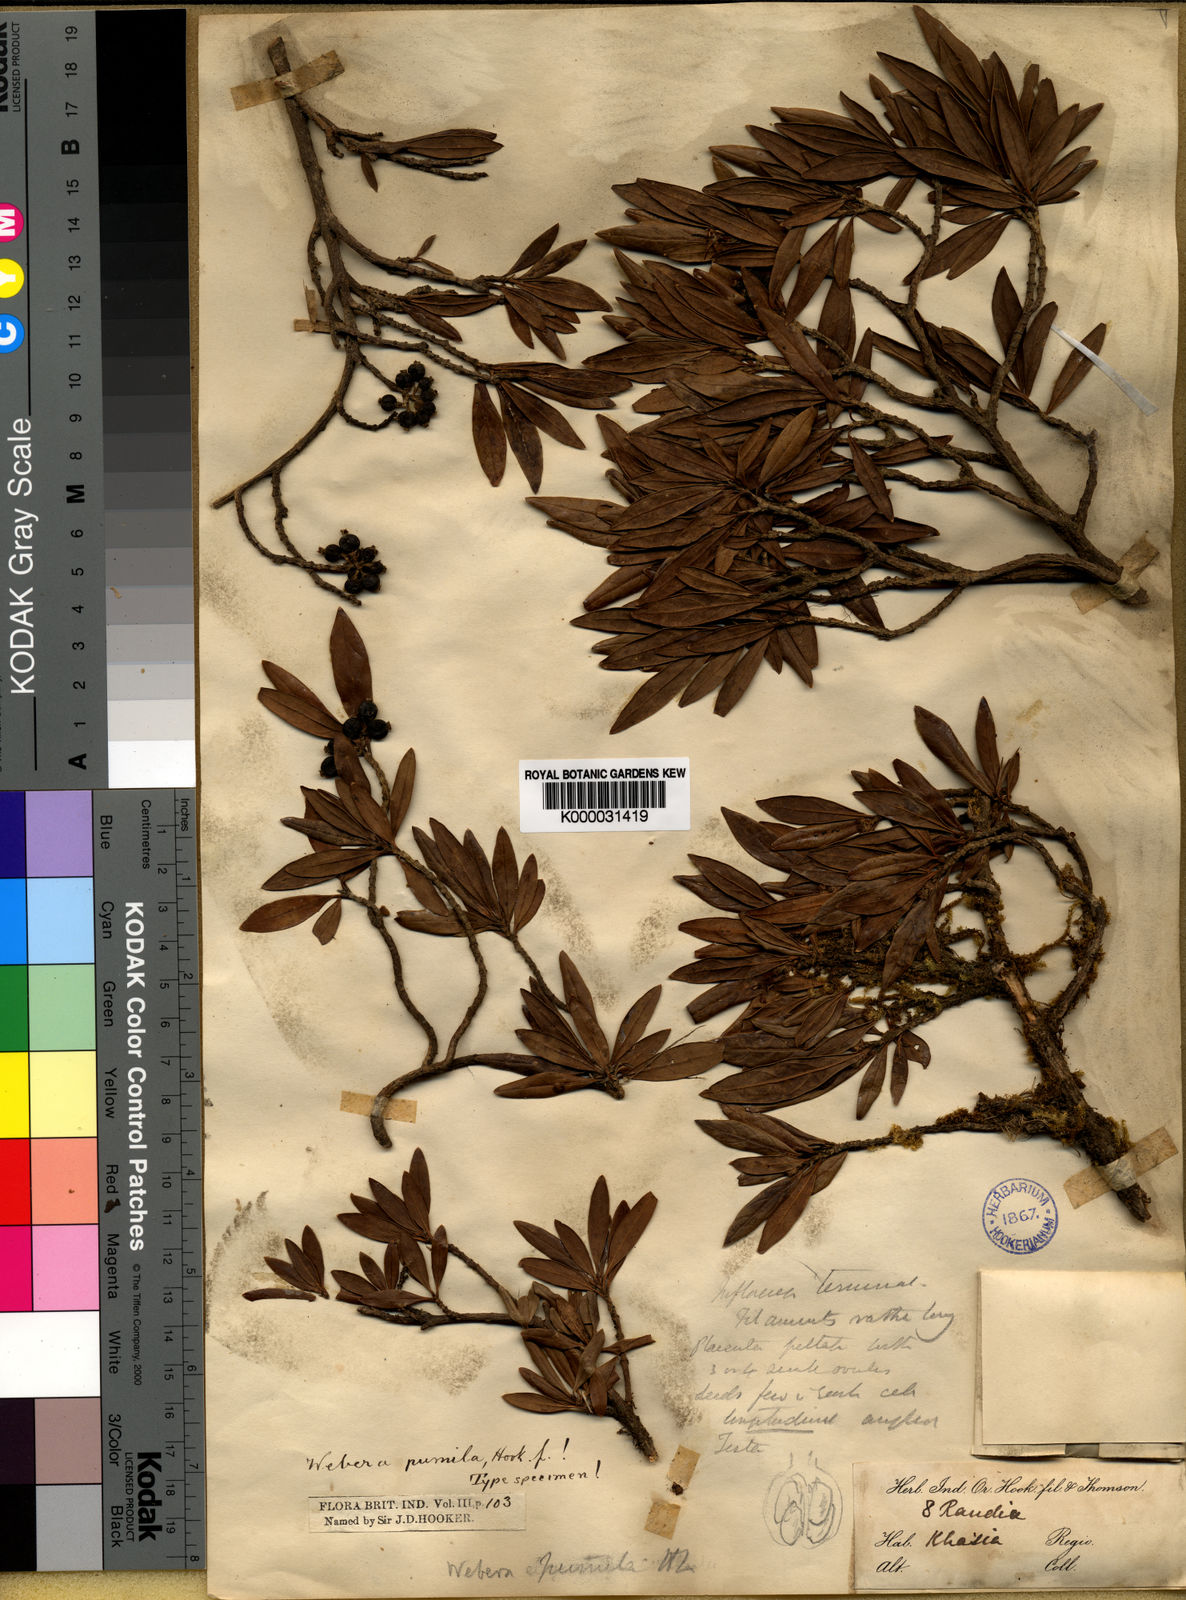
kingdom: Plantae
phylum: Tracheophyta
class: Magnoliopsida
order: Gentianales
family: Rubiaceae
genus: Tarenna
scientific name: Tarenna pumila
